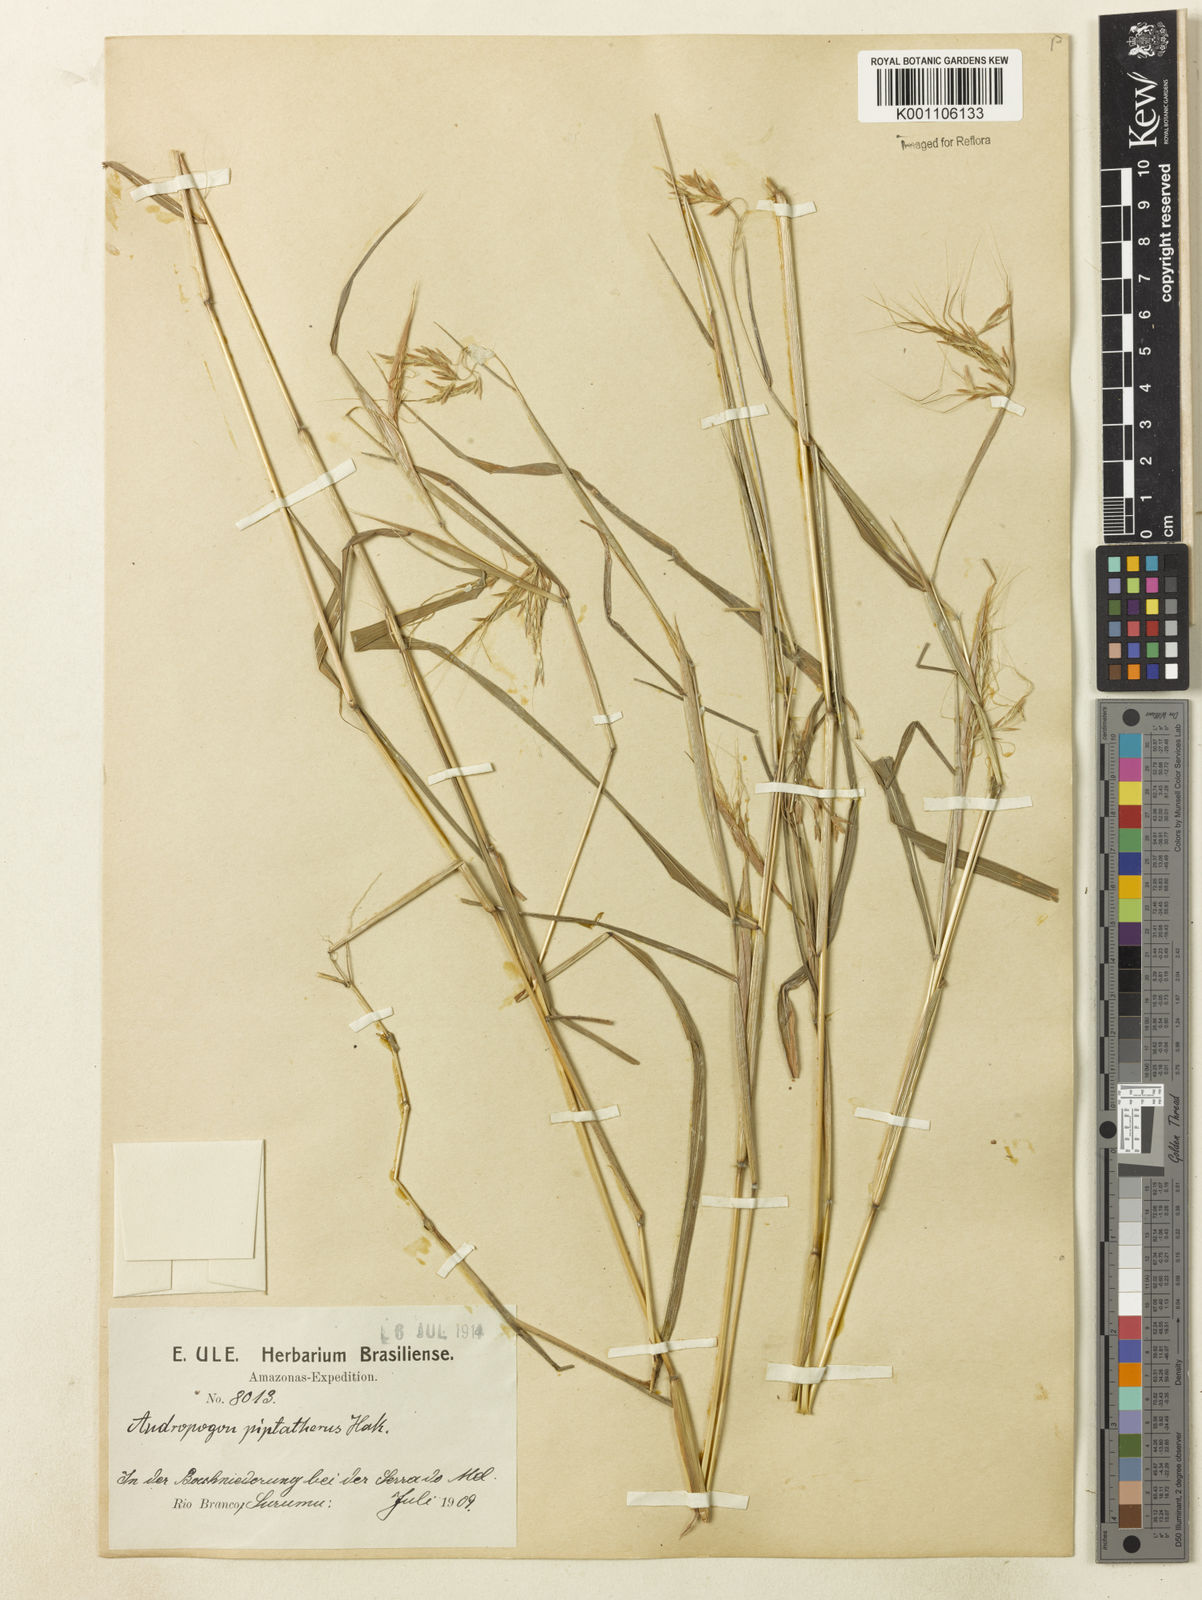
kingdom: Plantae
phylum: Tracheophyta
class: Liliopsida
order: Poales
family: Poaceae
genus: Euclasta
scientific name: Euclasta condylotricha
